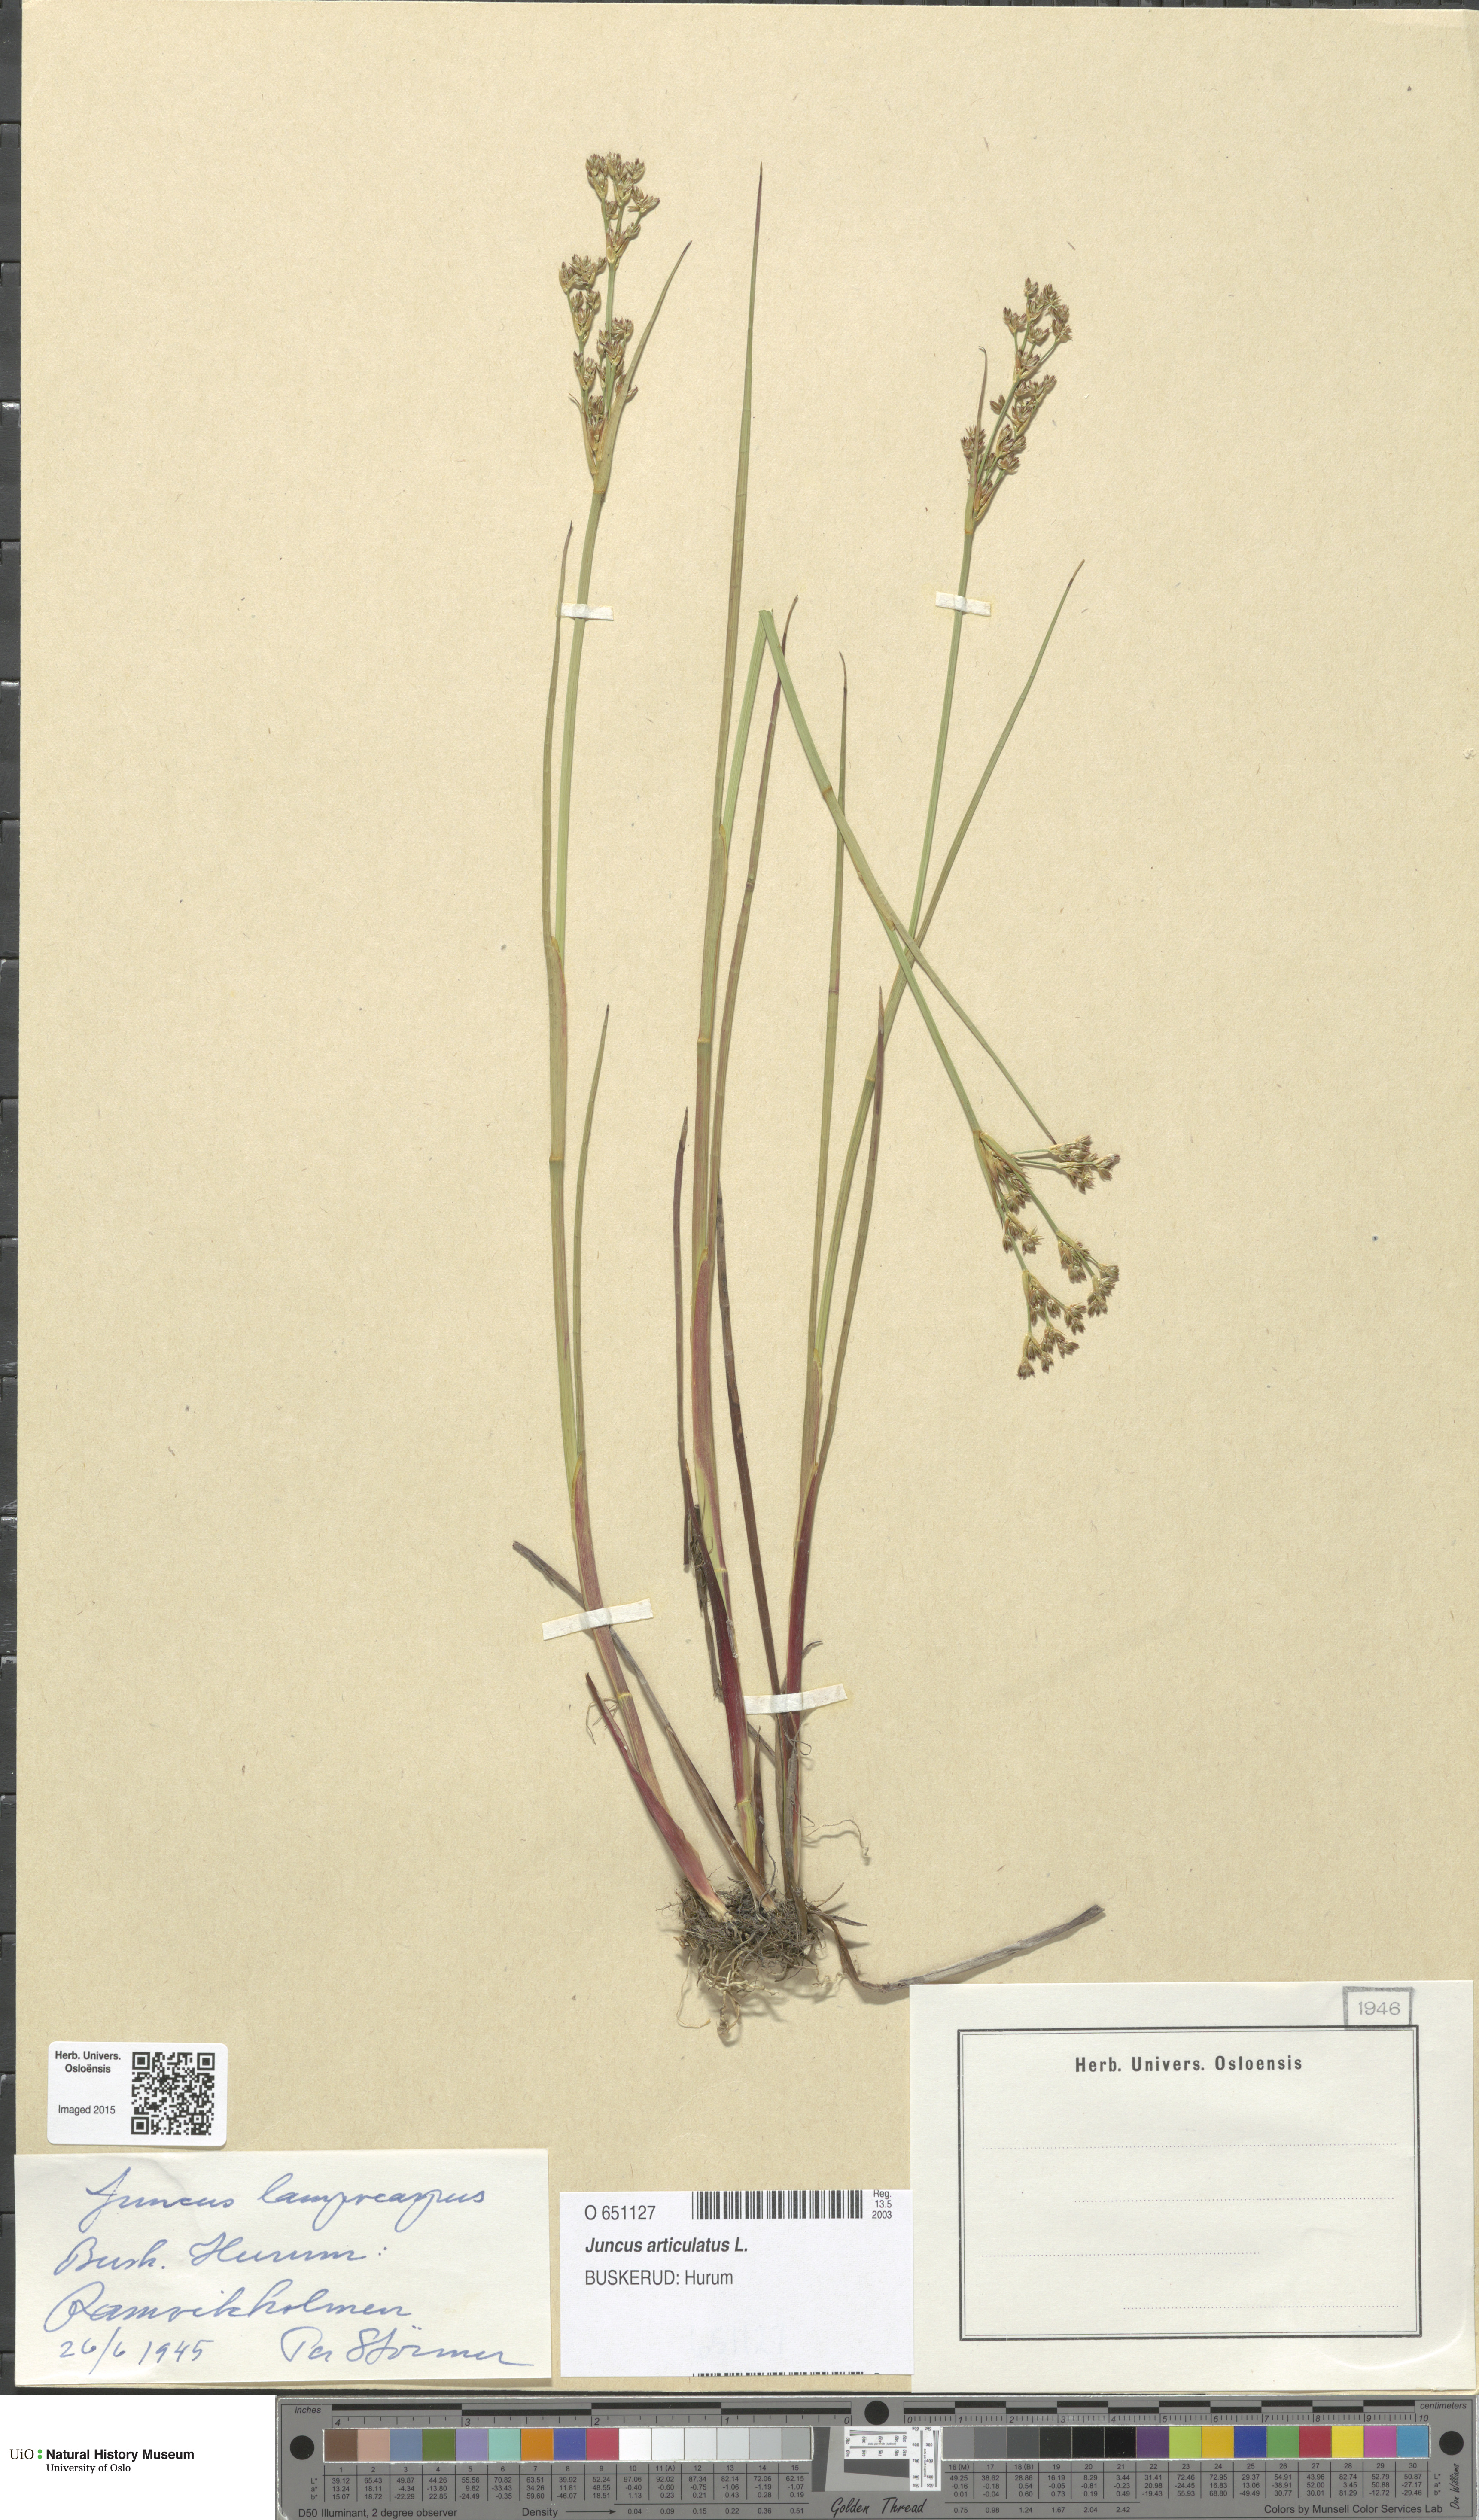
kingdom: Plantae
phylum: Tracheophyta
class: Liliopsida
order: Poales
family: Juncaceae
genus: Juncus
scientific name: Juncus articulatus
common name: Jointed rush
